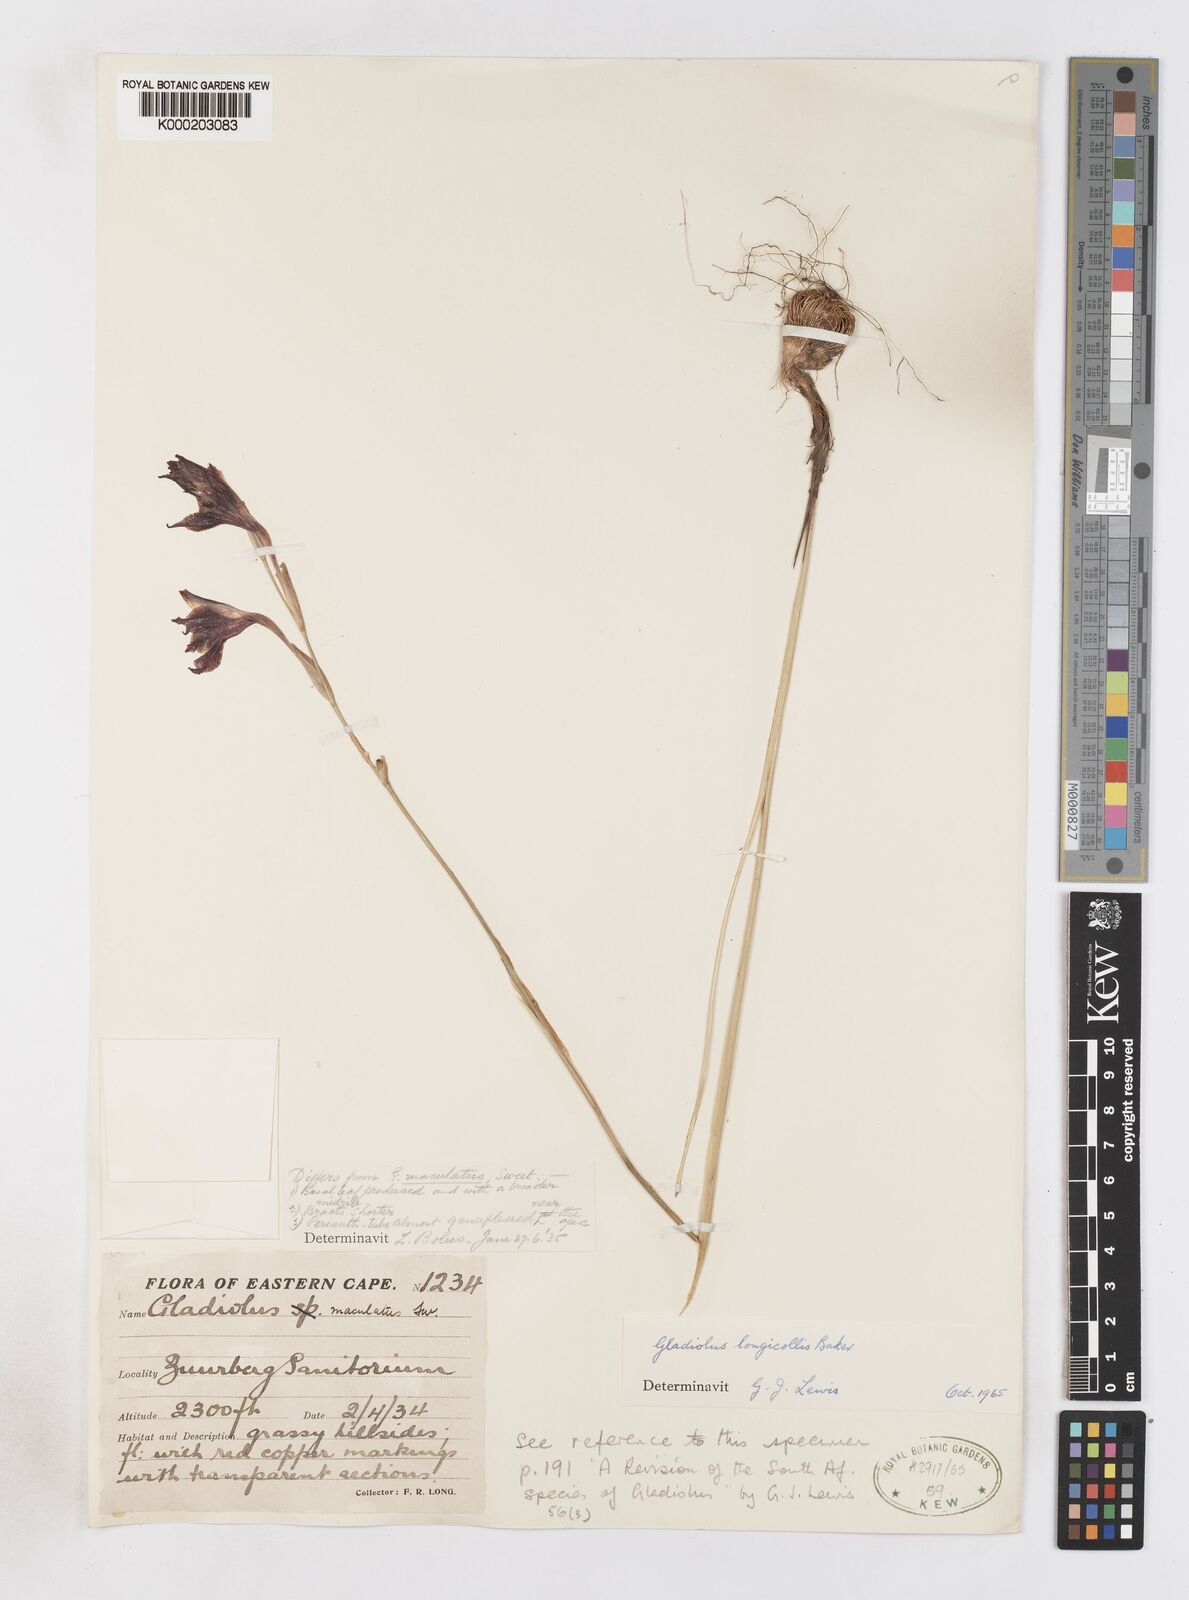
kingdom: Plantae
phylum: Tracheophyta
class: Liliopsida
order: Asparagales
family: Iridaceae
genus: Gladiolus
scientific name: Gladiolus longicollis
